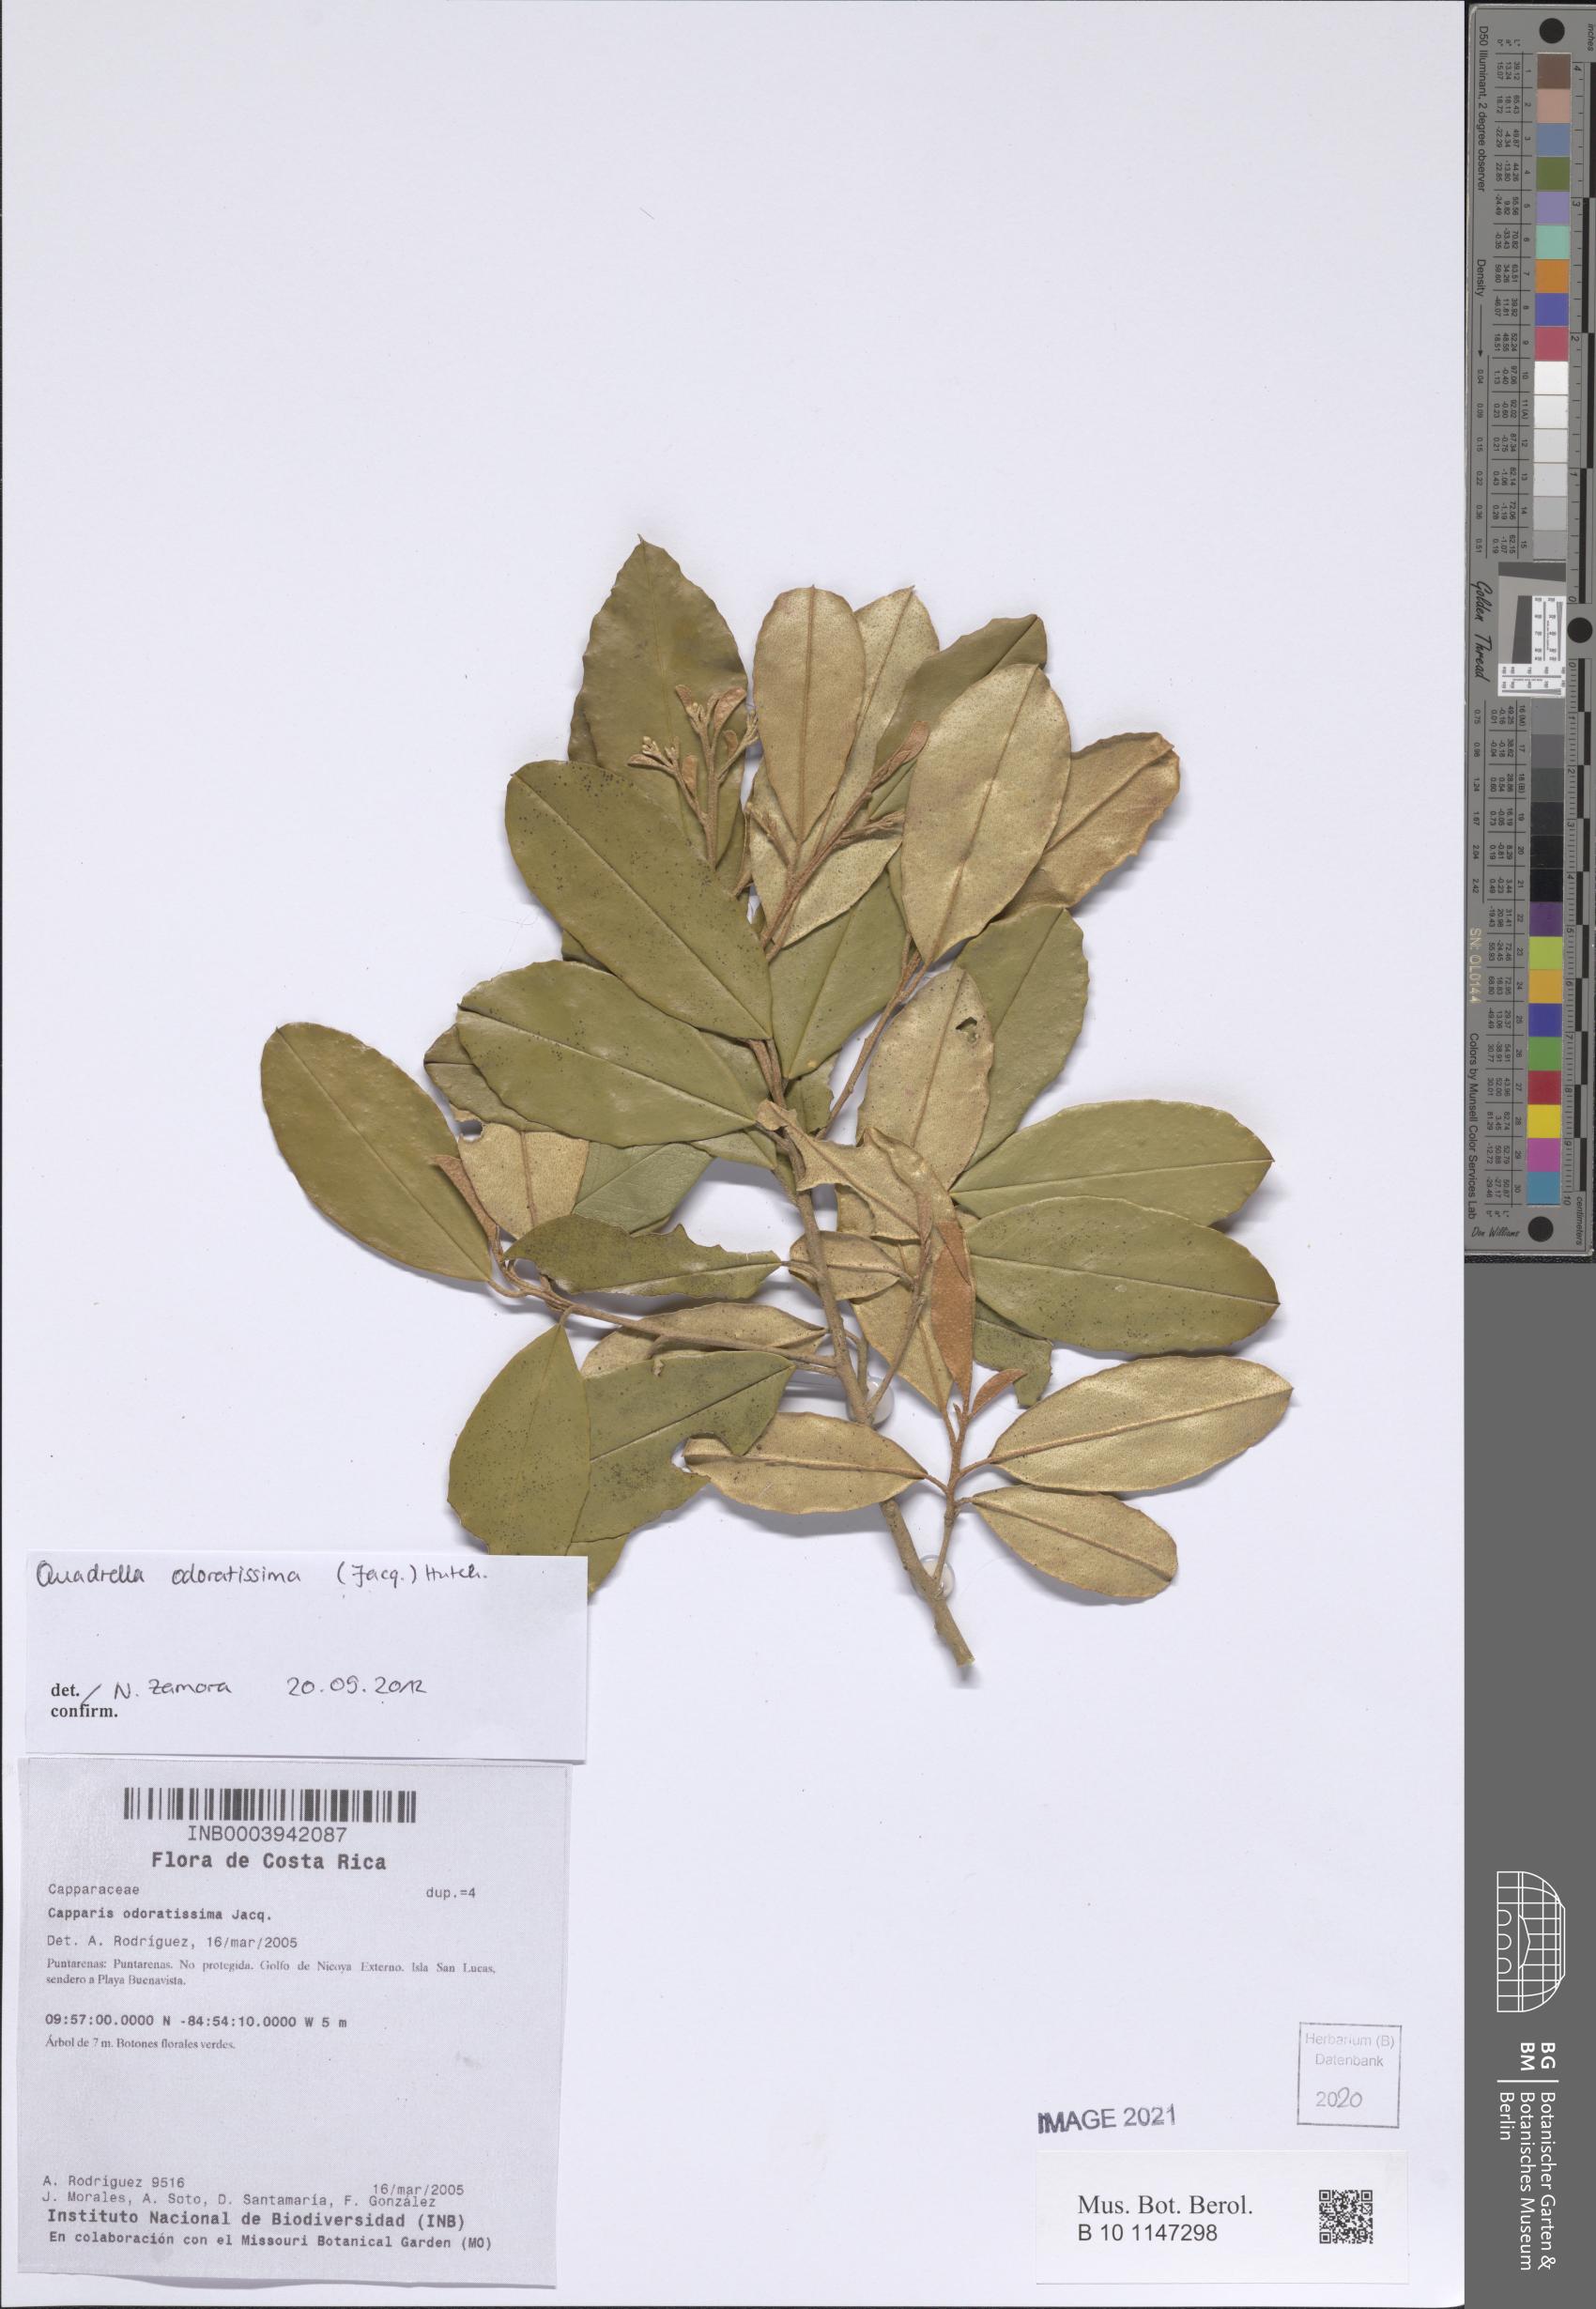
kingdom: Plantae
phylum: Tracheophyta
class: Magnoliopsida
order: Brassicales
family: Capparaceae
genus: Quadrella
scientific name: Quadrella odoratissima
